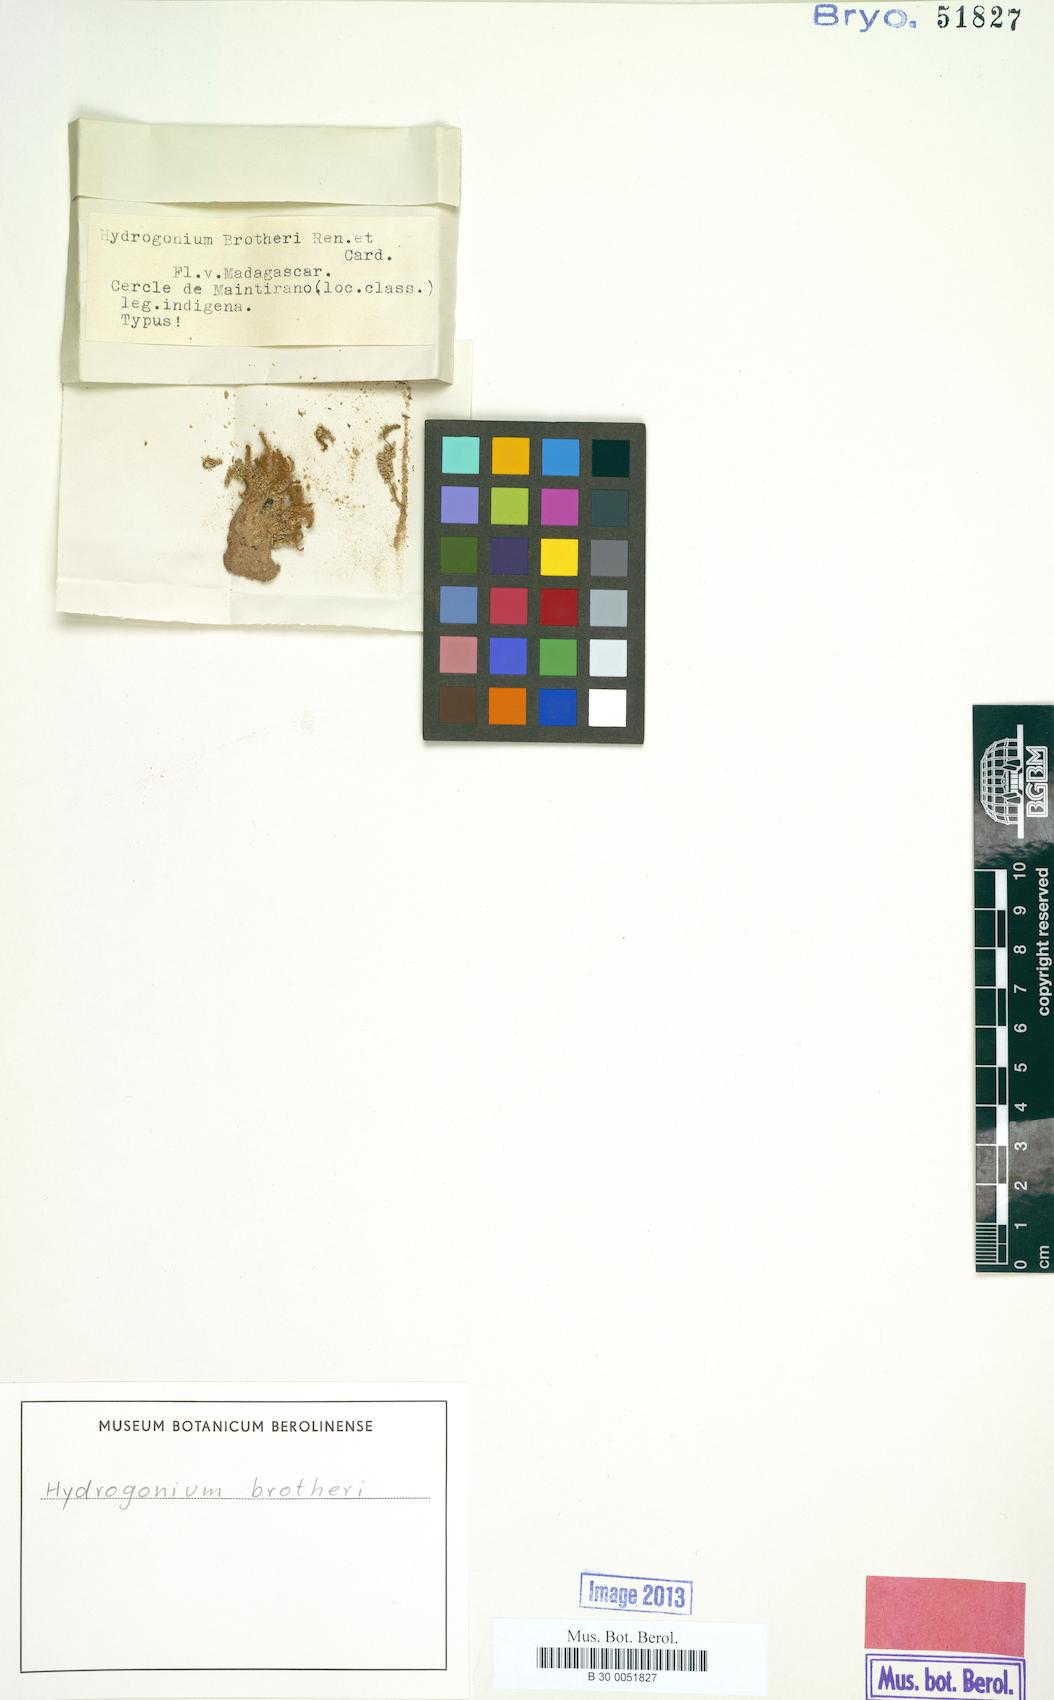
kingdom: Plantae
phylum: Bryophyta
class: Bryopsida
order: Pottiales
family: Pottiaceae
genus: Hydrogonium
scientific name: Hydrogonium bolleanum
